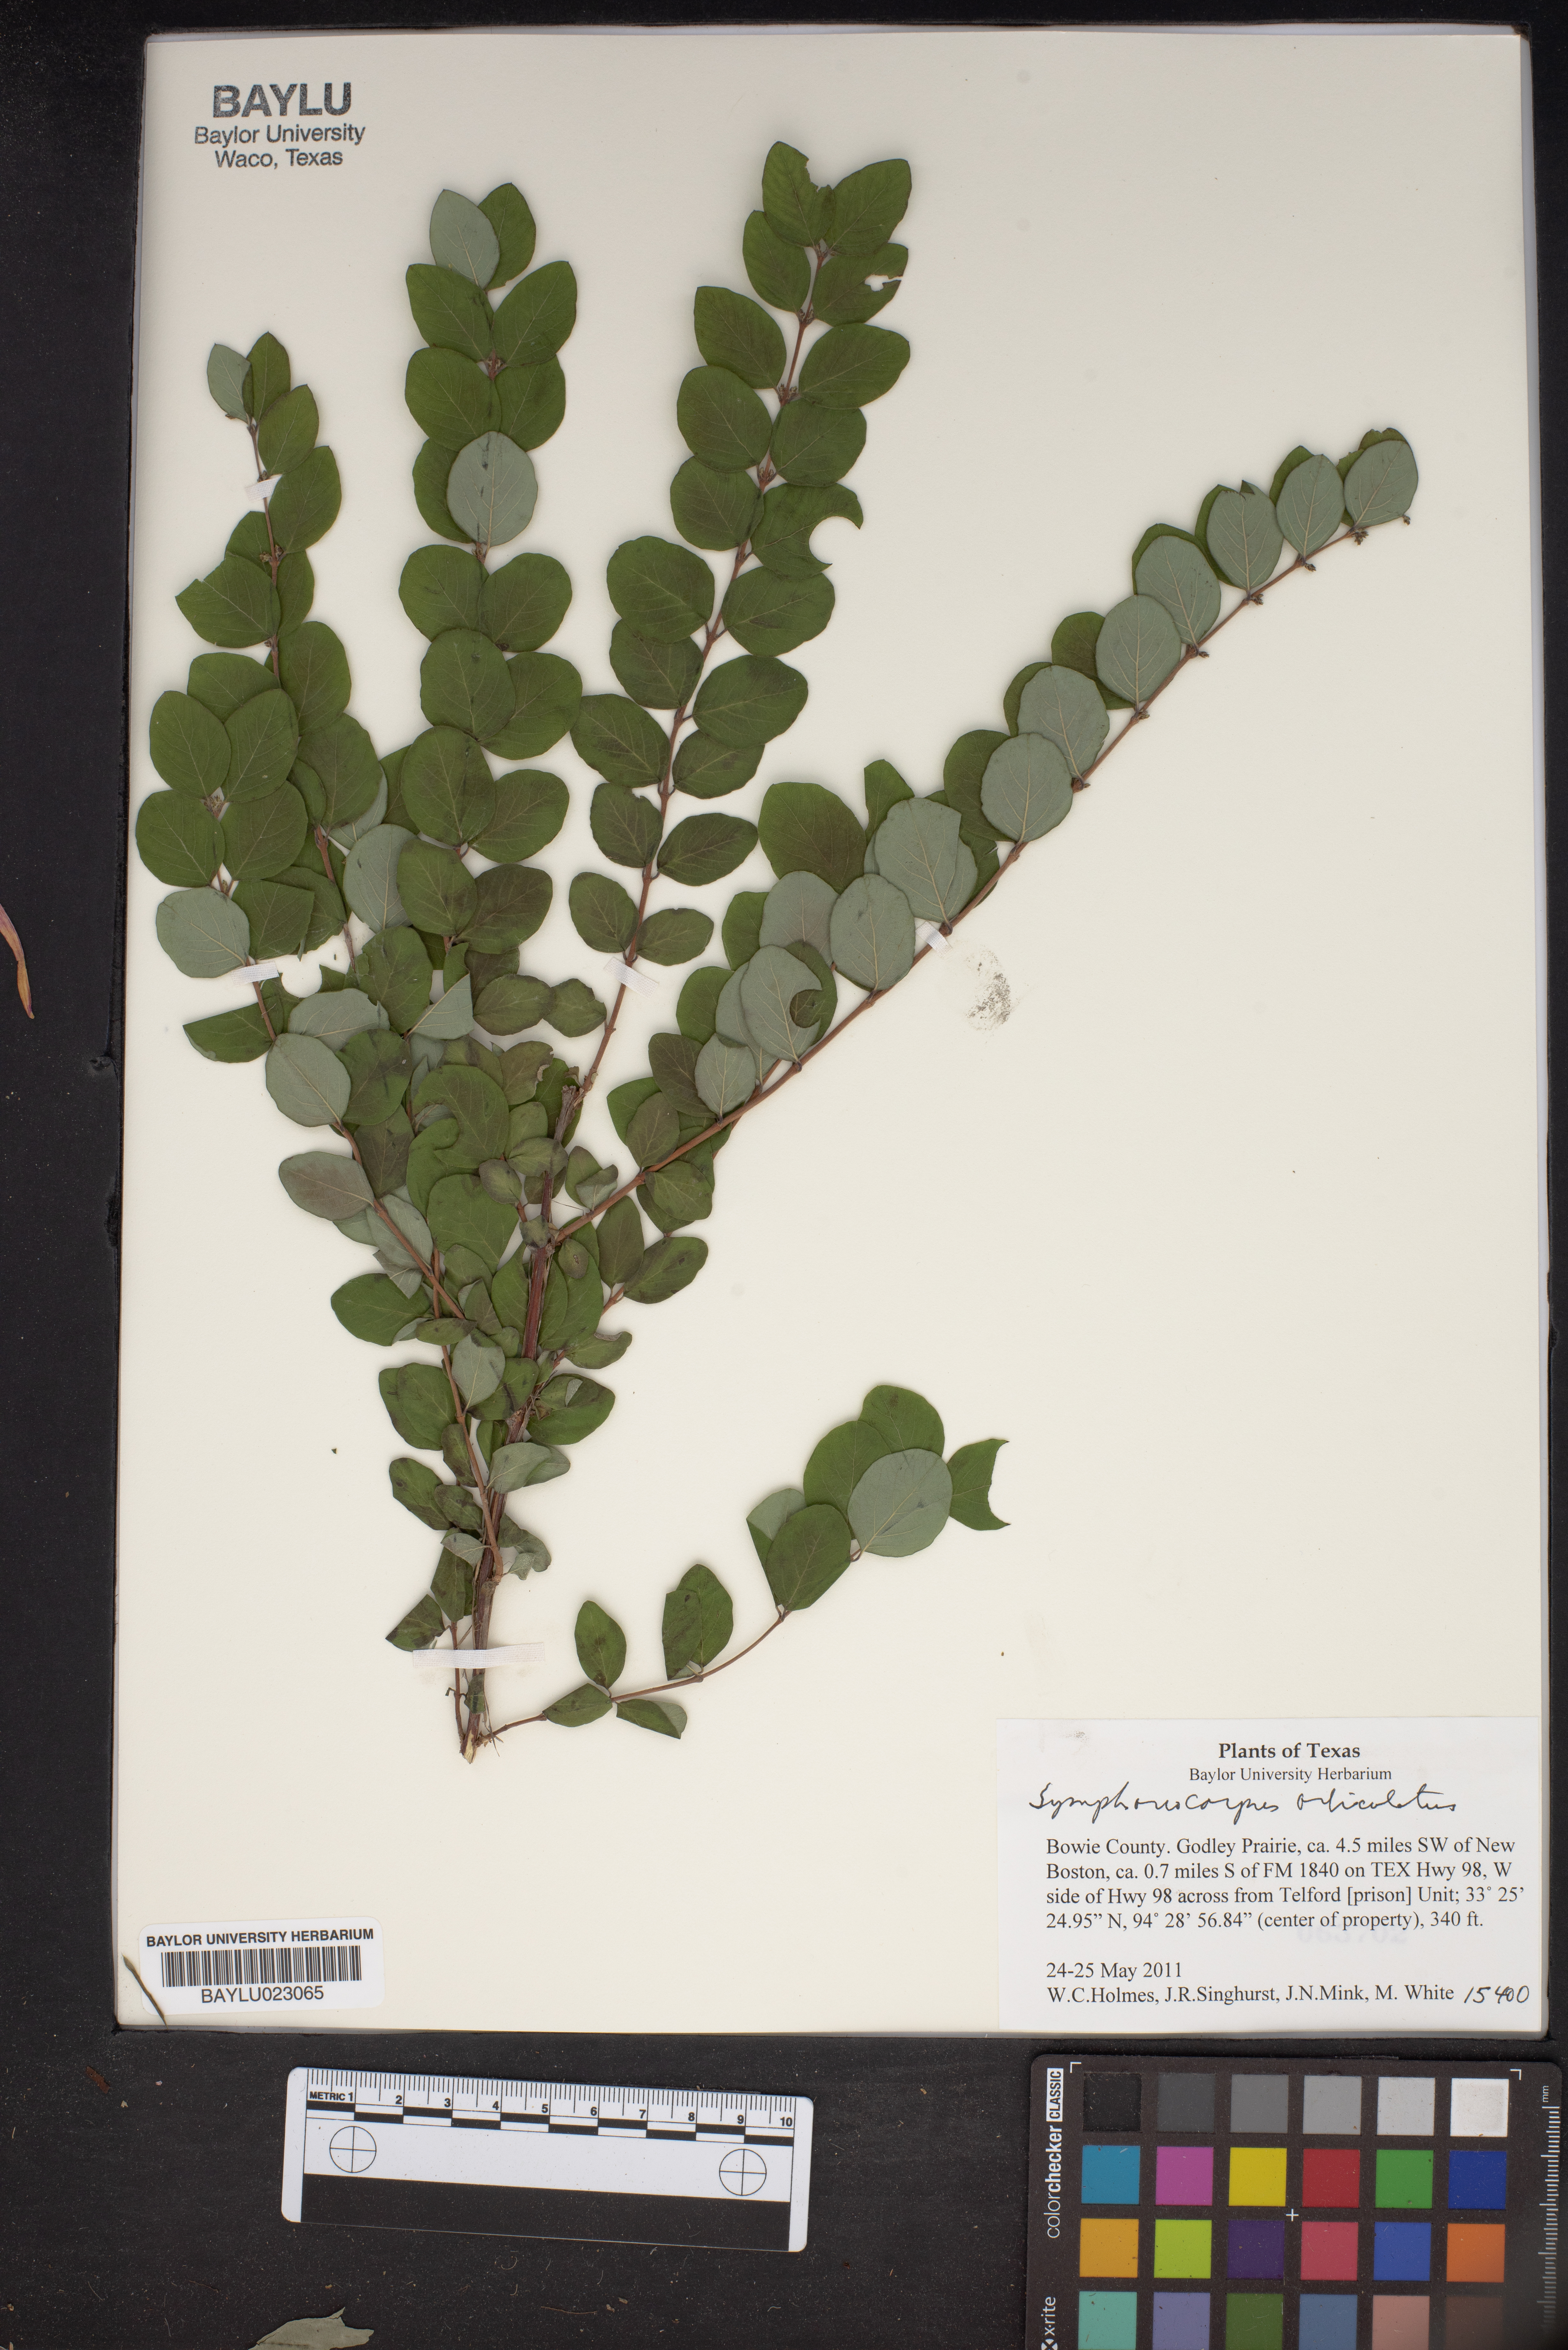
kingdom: Plantae
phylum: Tracheophyta
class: Magnoliopsida
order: Dipsacales
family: Caprifoliaceae
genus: Symphoricarpos
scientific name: Symphoricarpos orbiculatus
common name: Coralberry
